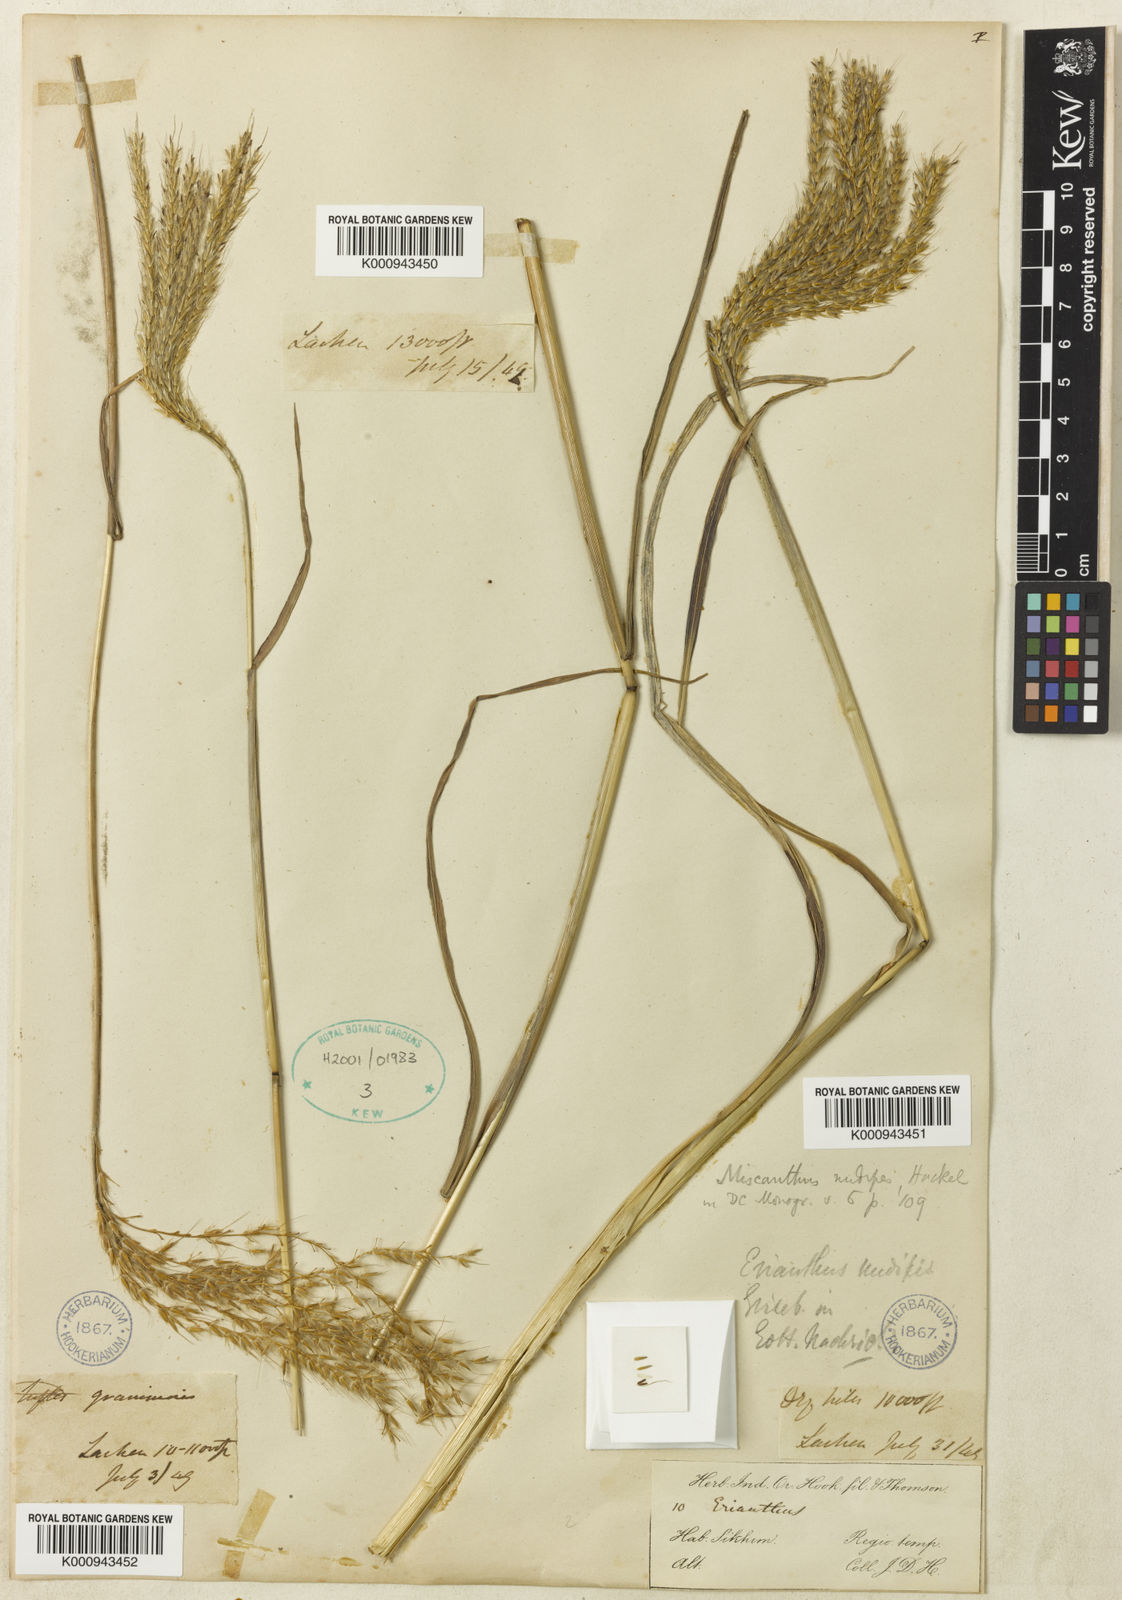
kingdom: Plantae
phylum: Tracheophyta
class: Liliopsida
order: Poales
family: Poaceae
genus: Miscanthus
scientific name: Miscanthus nudipes
